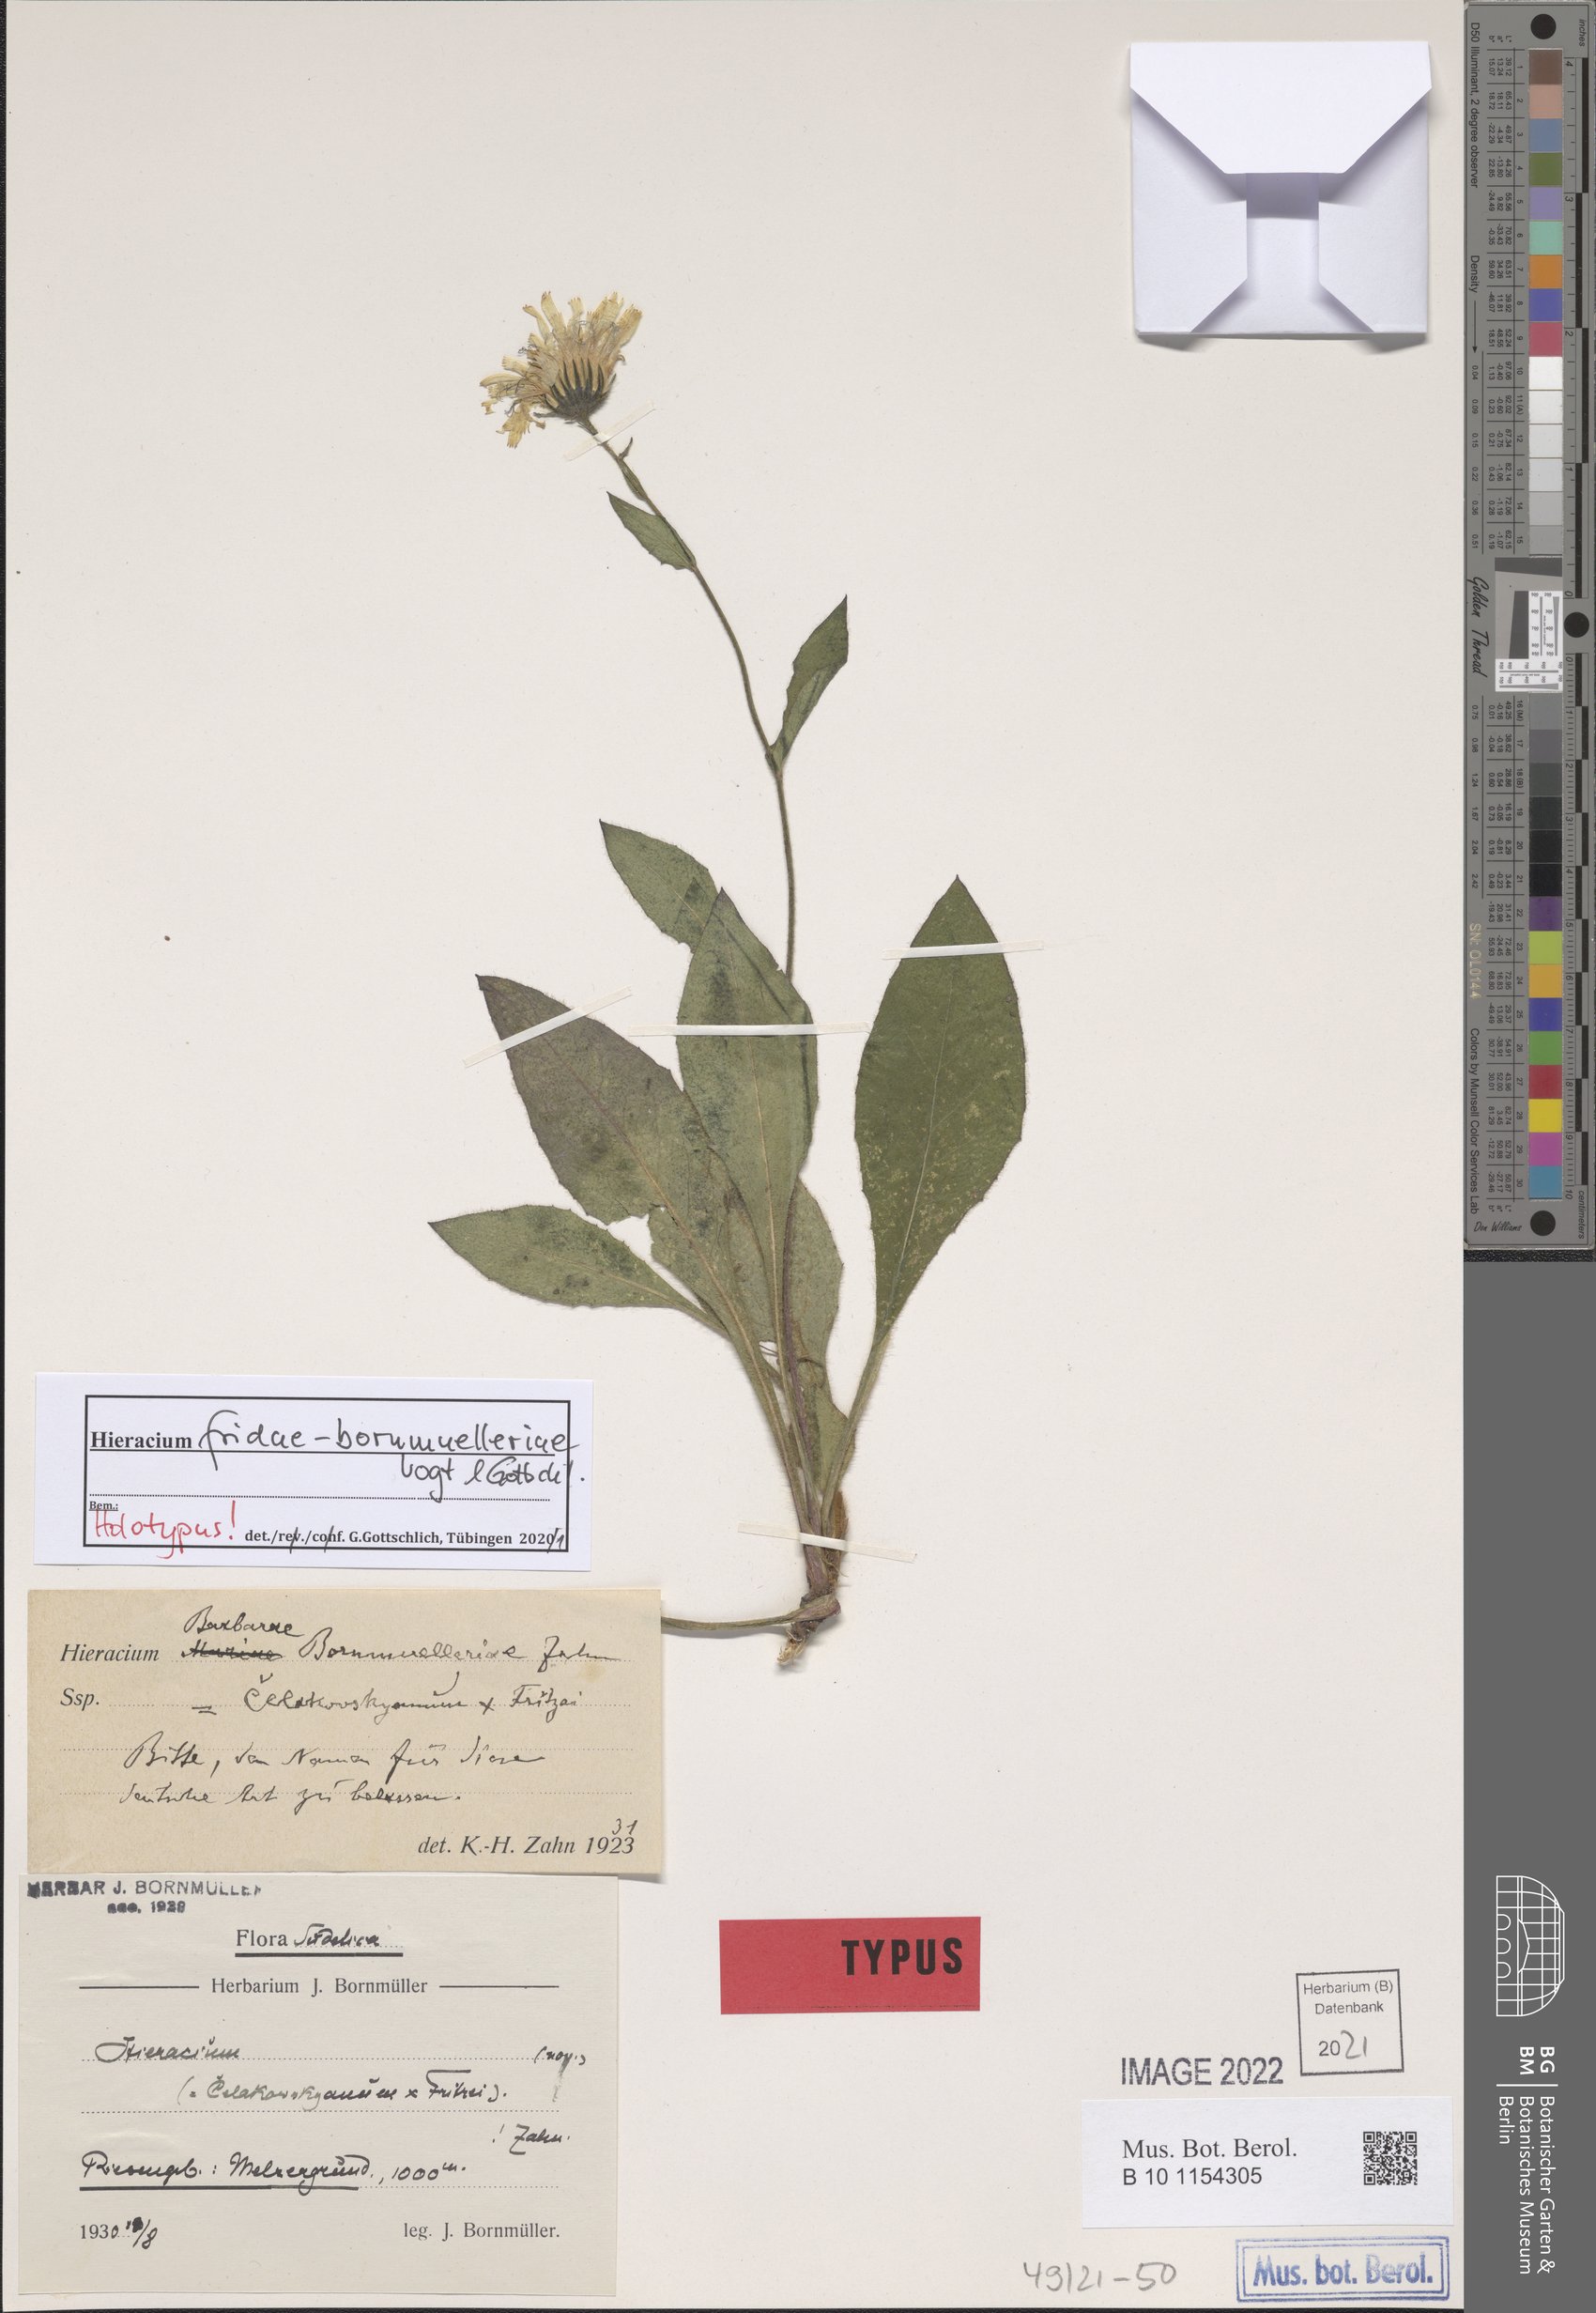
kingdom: Plantae
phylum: Tracheophyta
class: Magnoliopsida
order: Asterales
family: Asteraceae
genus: Hieracium
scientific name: Hieracium
